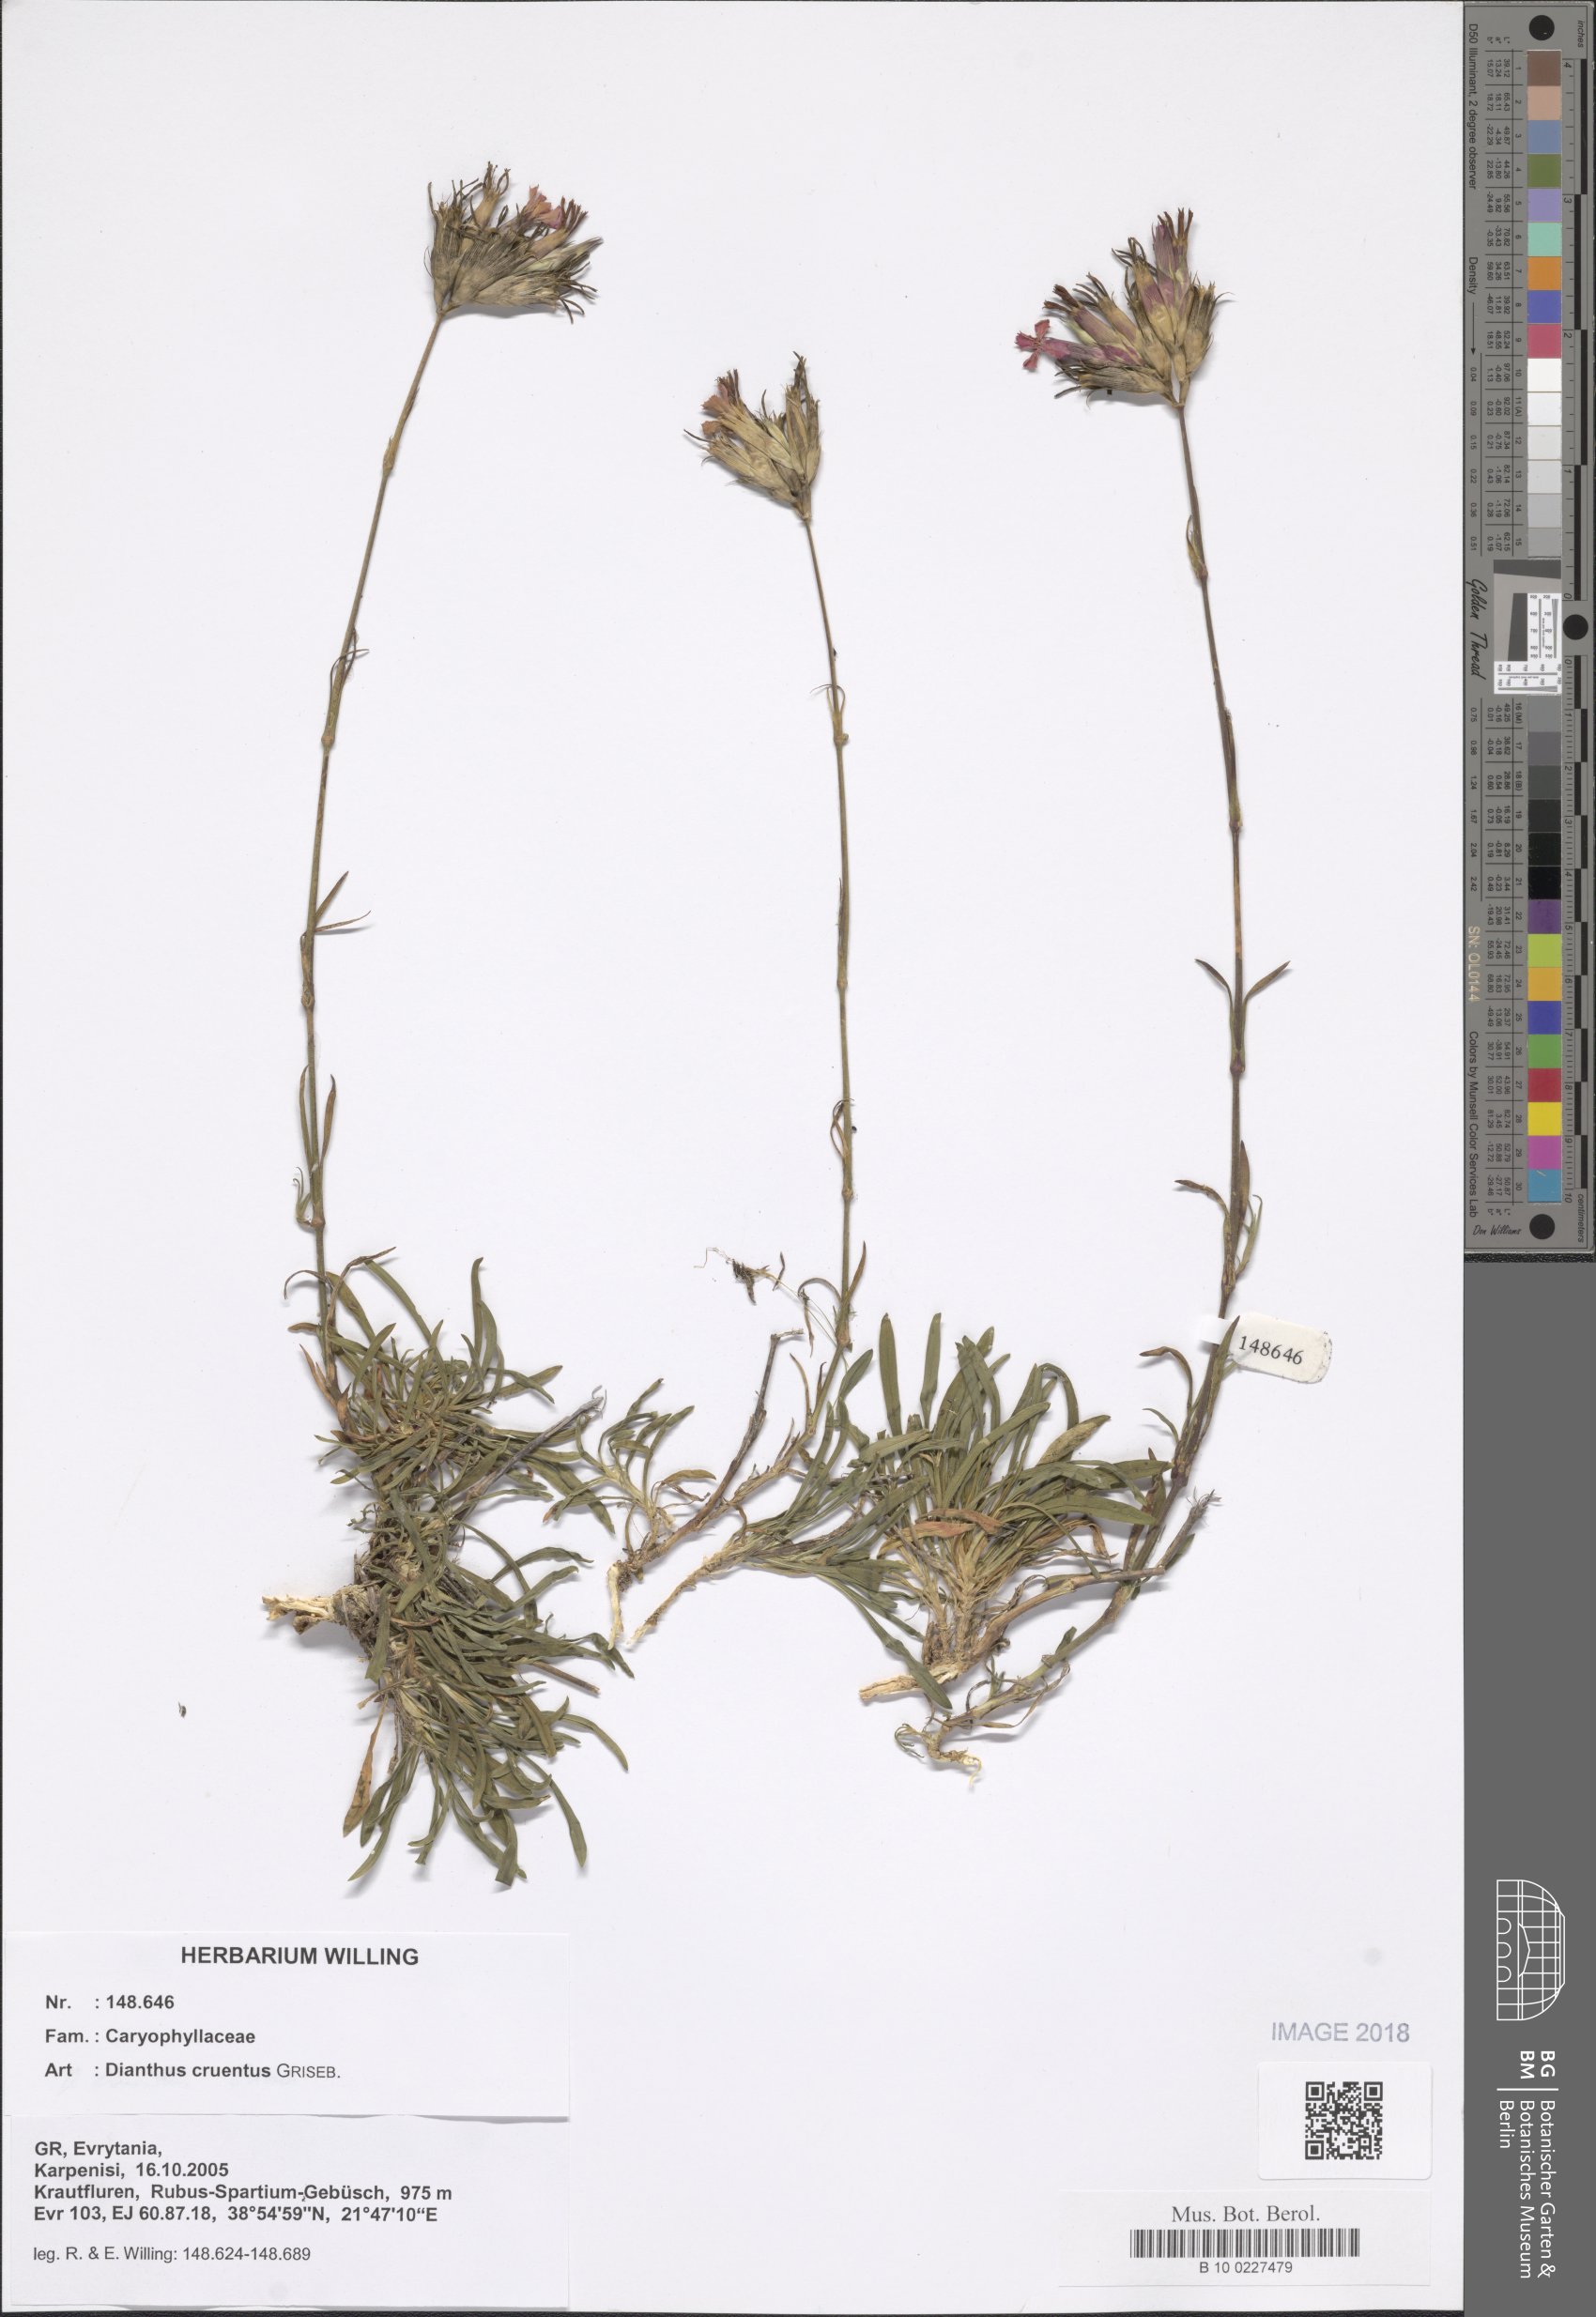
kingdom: Plantae
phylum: Tracheophyta
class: Magnoliopsida
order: Caryophyllales
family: Caryophyllaceae
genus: Dianthus
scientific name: Dianthus cruentus
